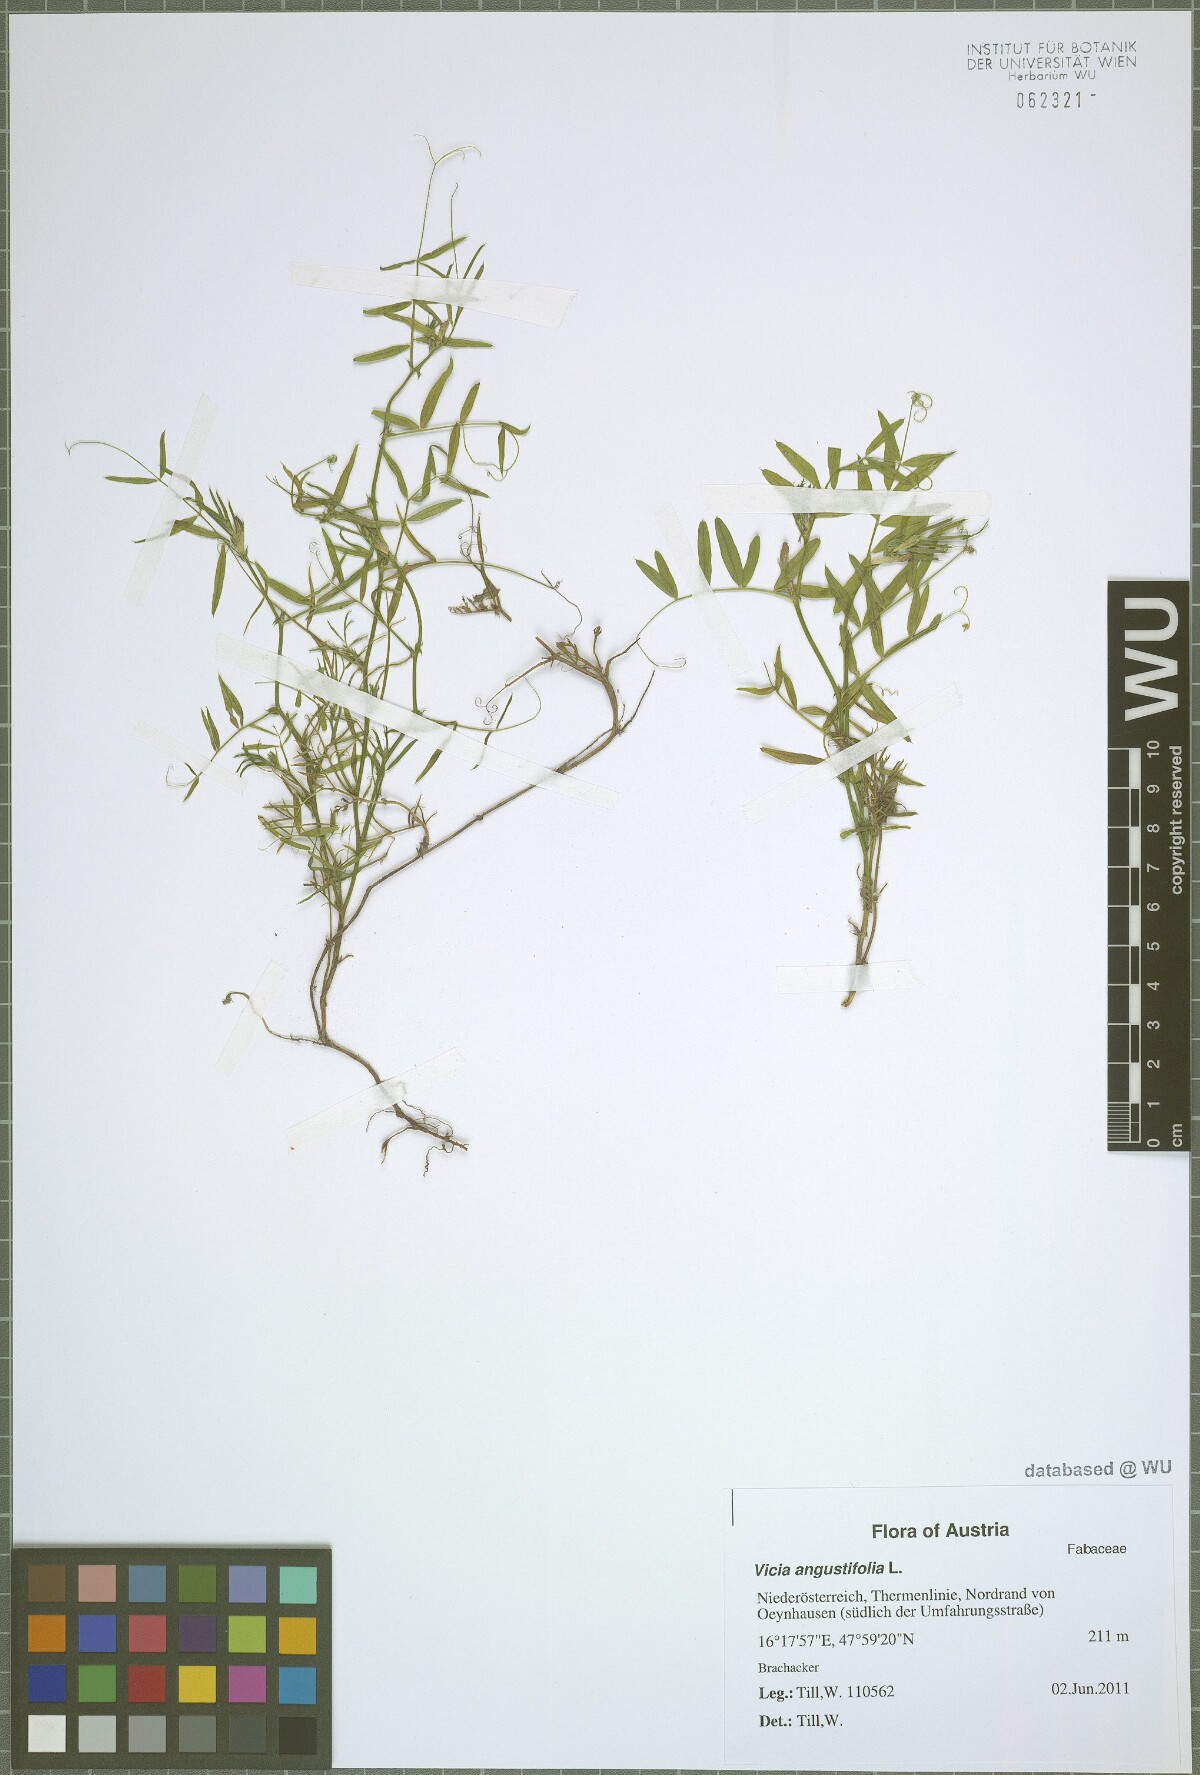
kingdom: Plantae
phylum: Tracheophyta
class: Magnoliopsida
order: Fabales
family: Fabaceae
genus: Vicia
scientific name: Vicia sativa
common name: Garden vetch
